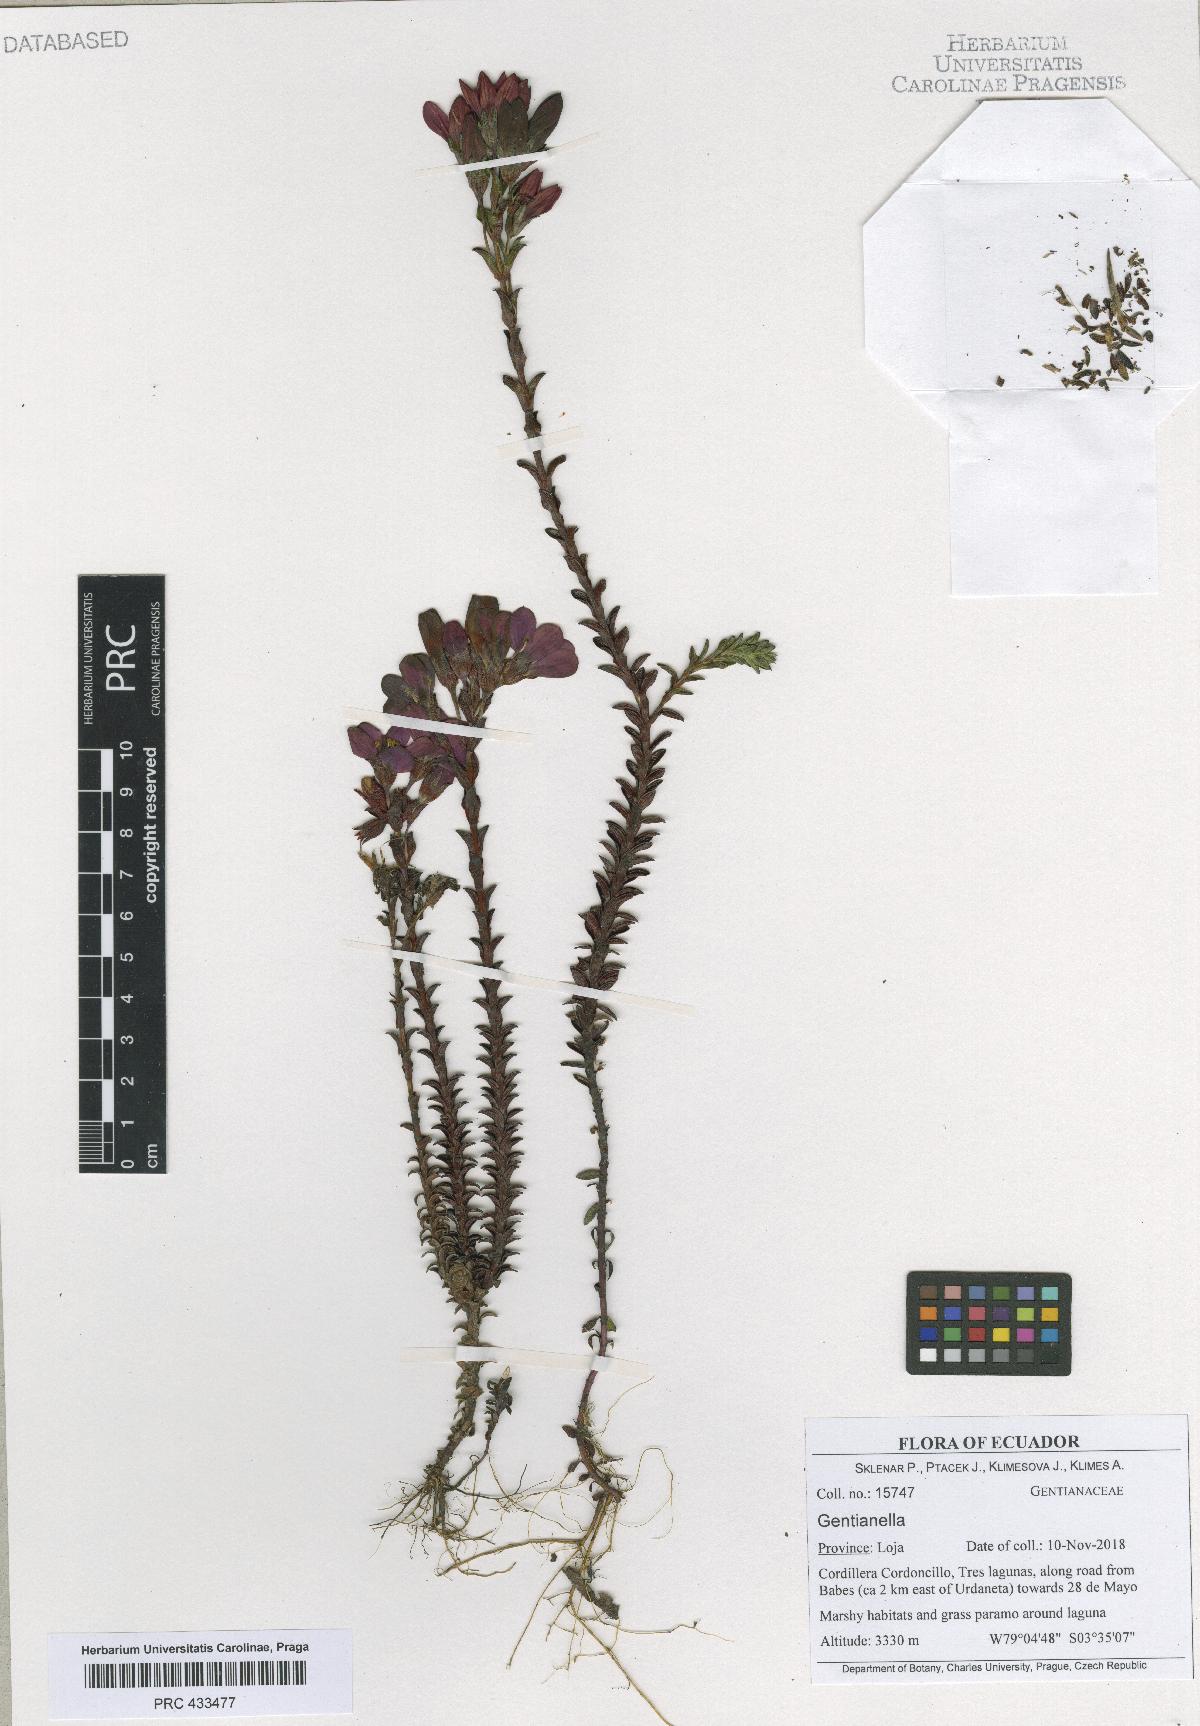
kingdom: Plantae
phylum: Tracheophyta
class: Magnoliopsida
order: Gentianales
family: Gentianaceae
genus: Gentianella
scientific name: Gentianella
